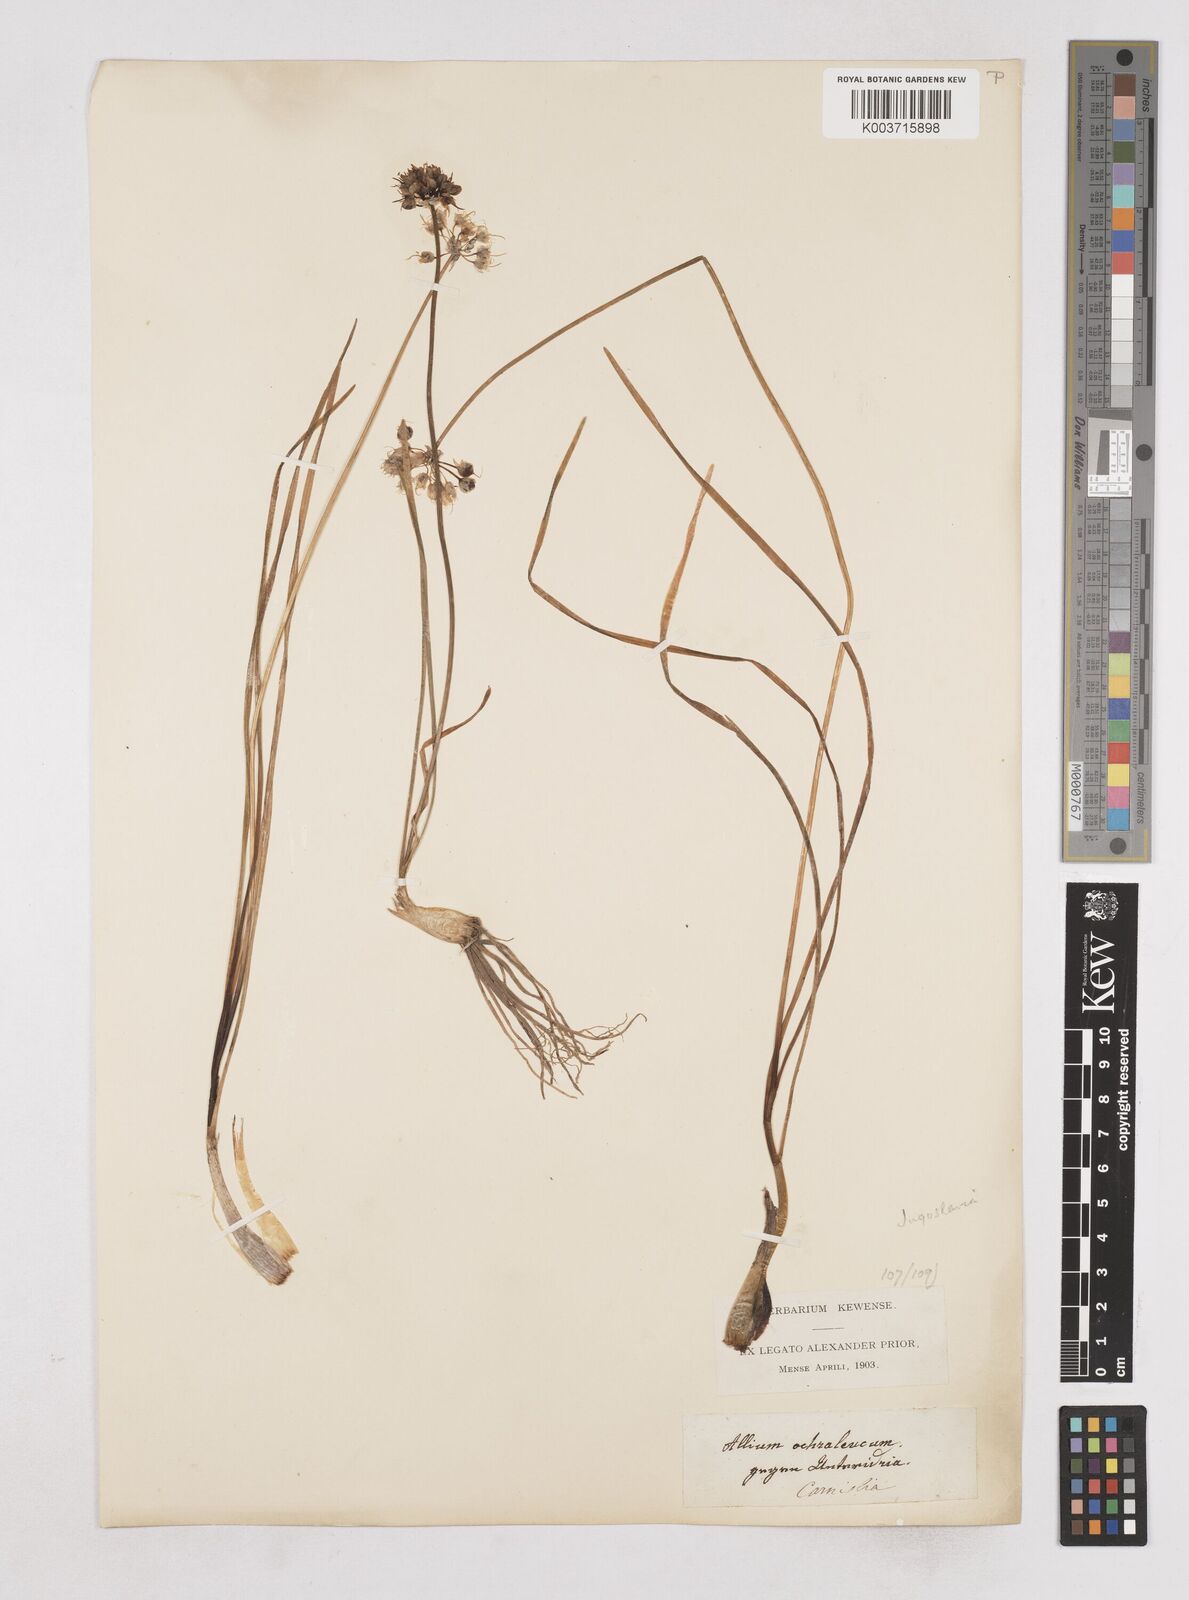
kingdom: Plantae
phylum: Tracheophyta
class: Liliopsida
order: Asparagales
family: Amaryllidaceae
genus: Allium
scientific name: Allium ericetorum
